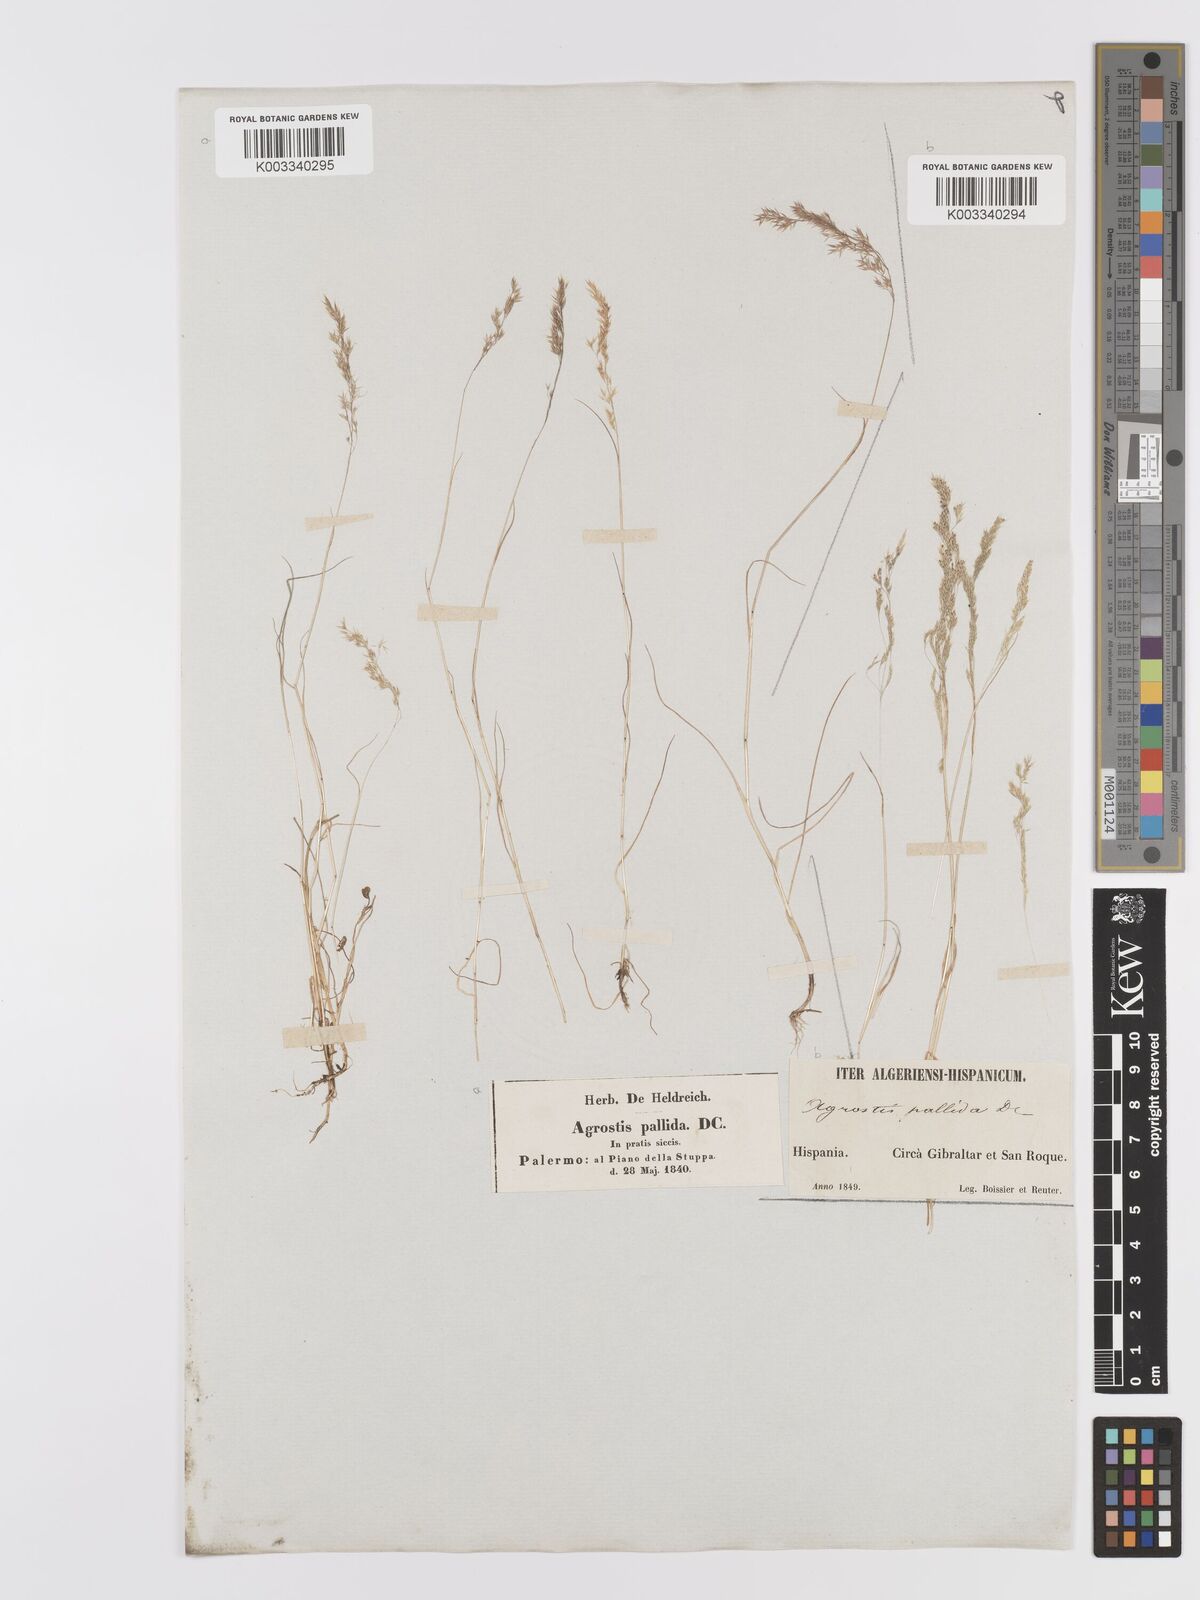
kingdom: Plantae
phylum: Tracheophyta
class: Liliopsida
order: Poales
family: Poaceae
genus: Agrostis
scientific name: Agrostis pourretii
